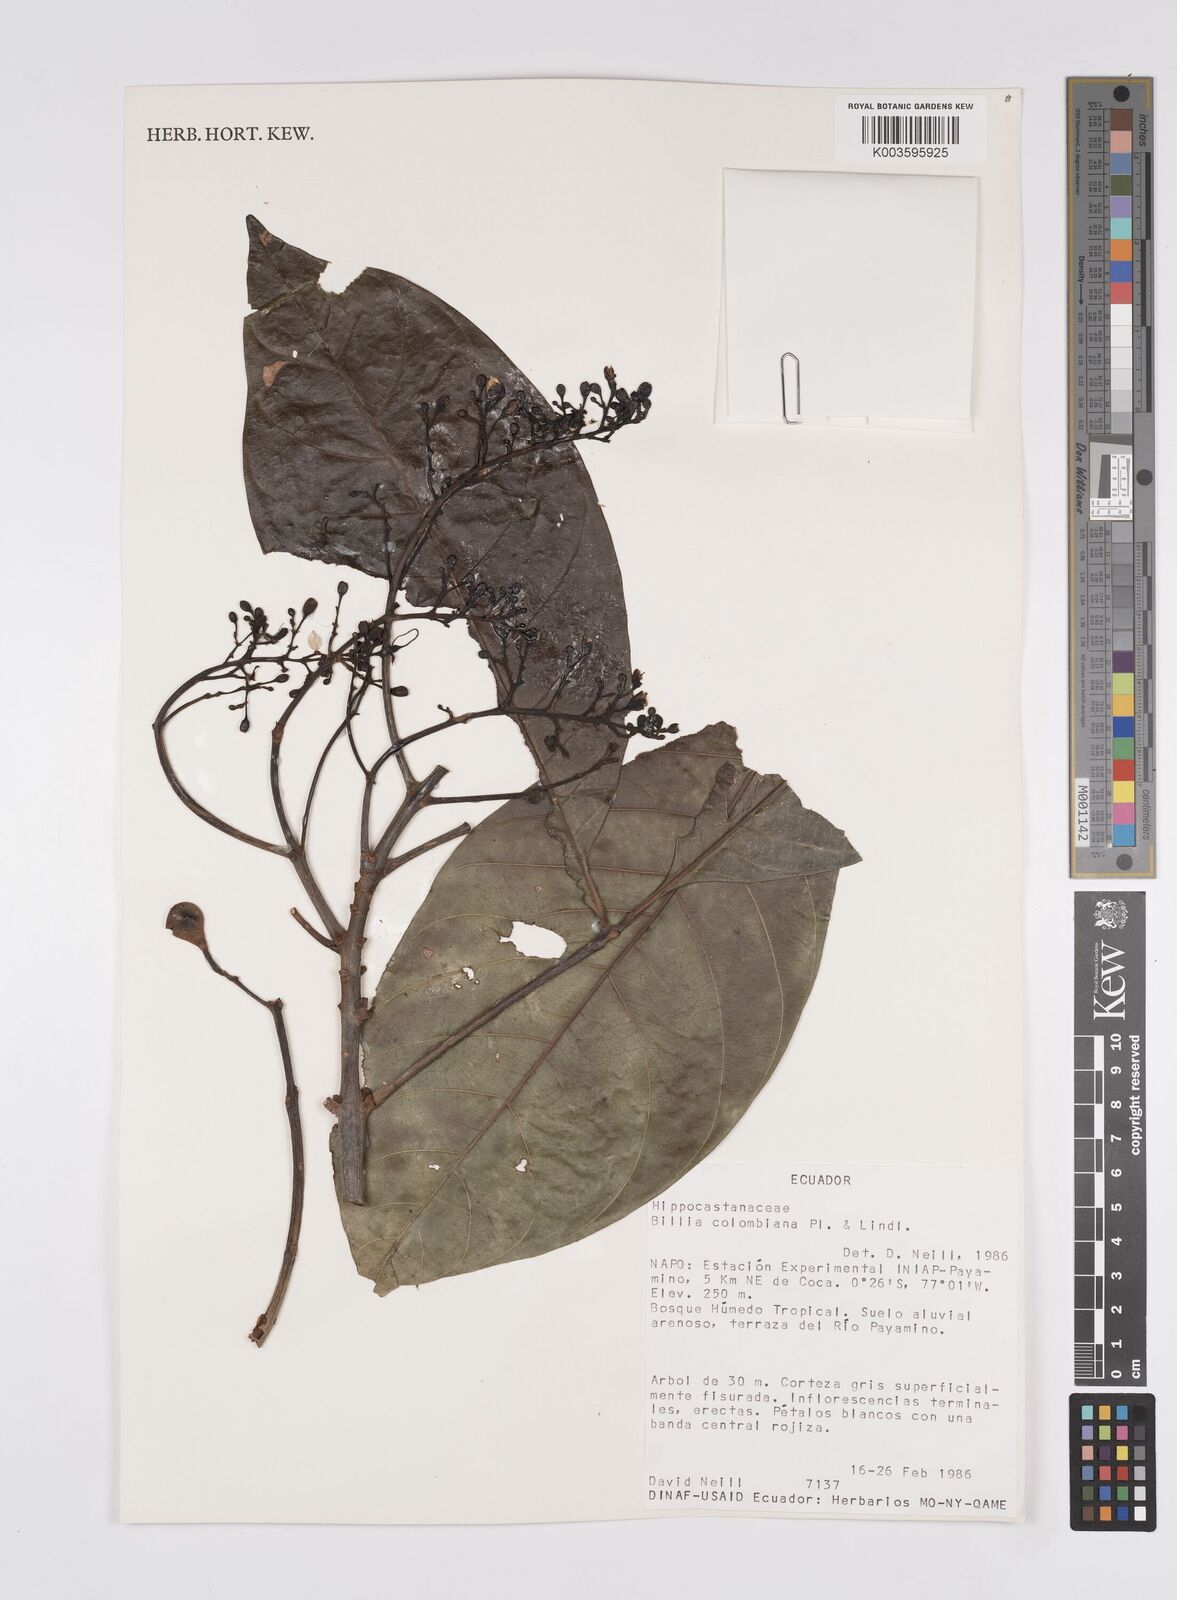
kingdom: Plantae
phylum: Tracheophyta
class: Magnoliopsida
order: Sapindales
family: Sapindaceae
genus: Billia
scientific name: Billia
